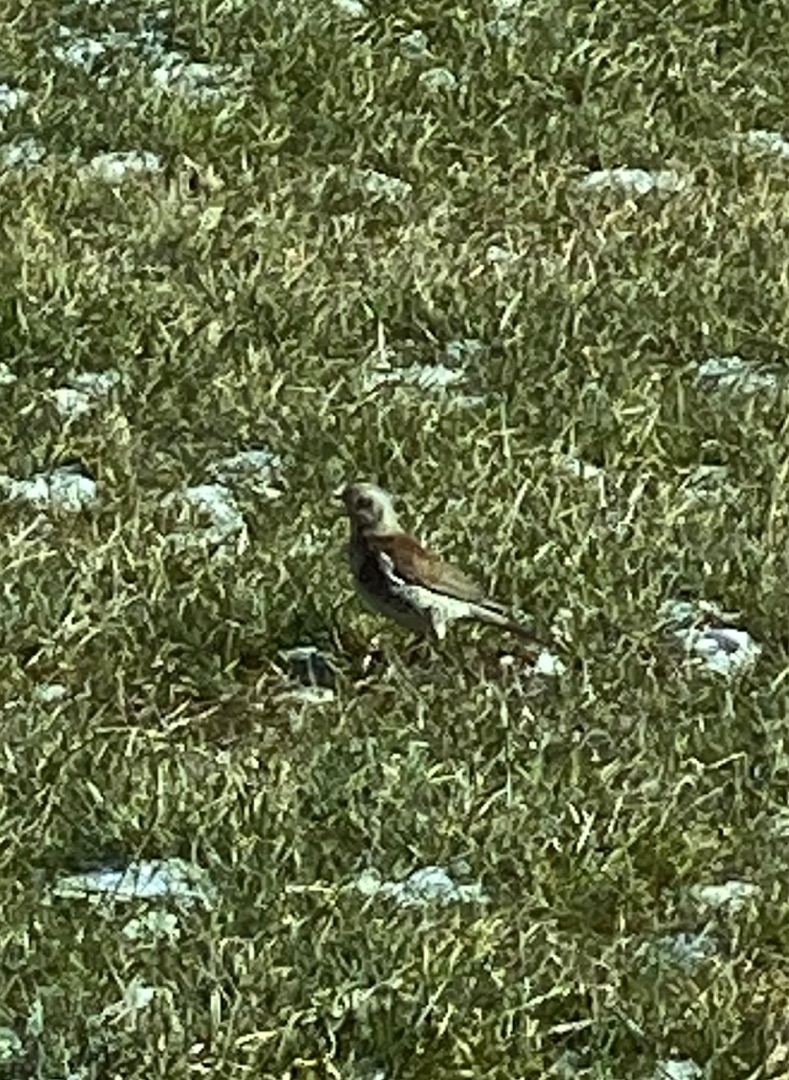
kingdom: Animalia
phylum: Chordata
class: Aves
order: Passeriformes
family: Turdidae
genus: Turdus
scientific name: Turdus pilaris
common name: Sjagger
